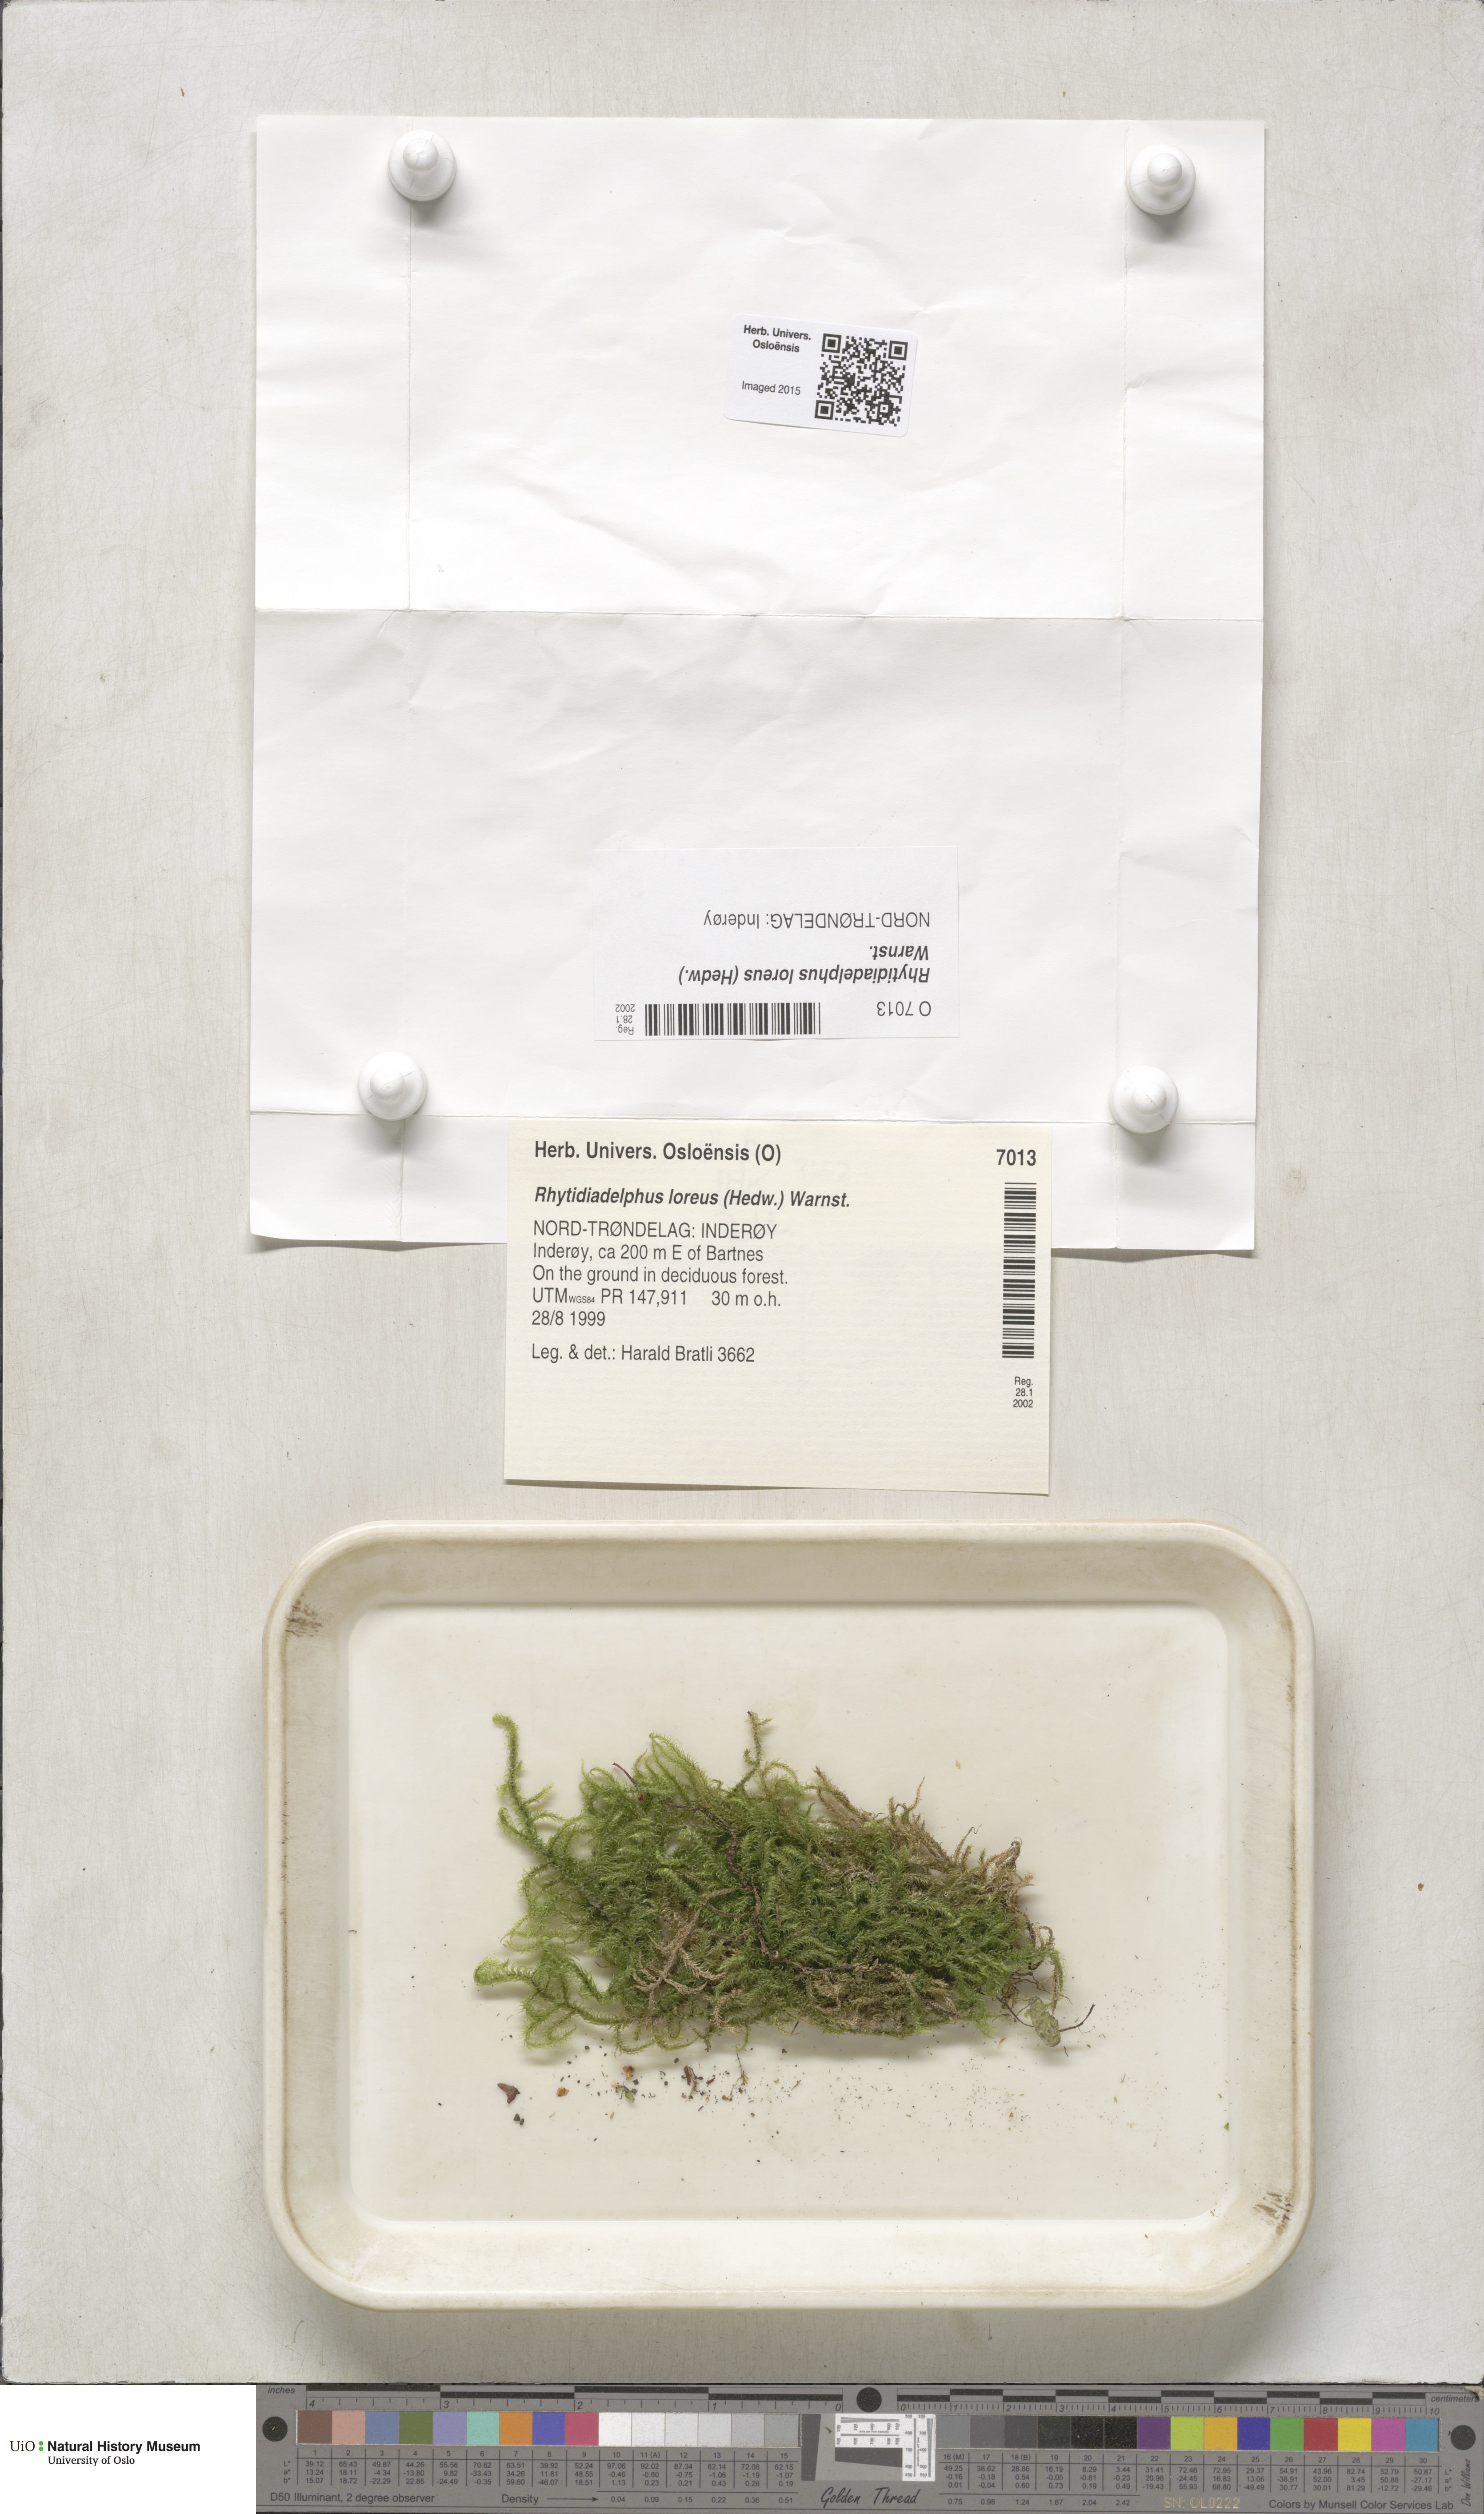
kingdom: Plantae
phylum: Bryophyta
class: Bryopsida
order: Hypnales
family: Hylocomiaceae
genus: Rhytidiadelphus
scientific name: Rhytidiadelphus loreus
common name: Lanky moss
